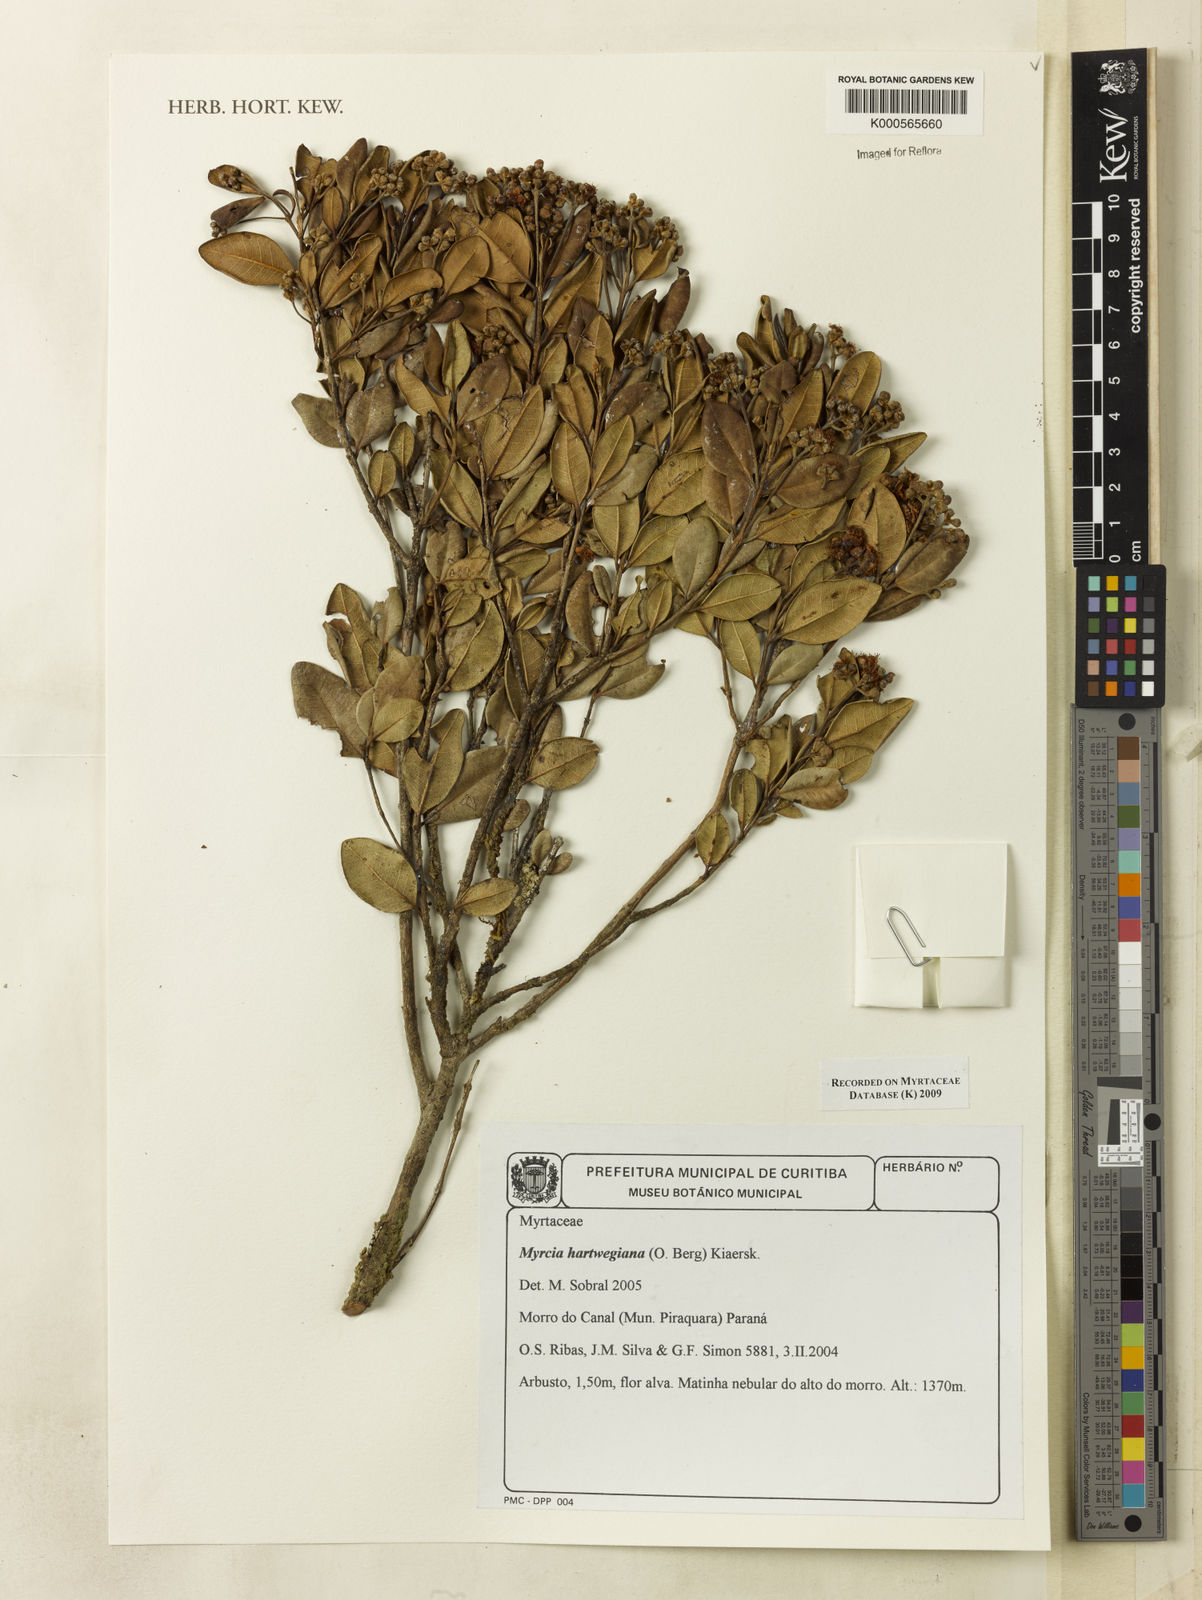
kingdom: Plantae
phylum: Tracheophyta
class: Magnoliopsida
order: Myrtales
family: Myrtaceae
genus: Myrcia
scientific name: Myrcia hartwegiana
